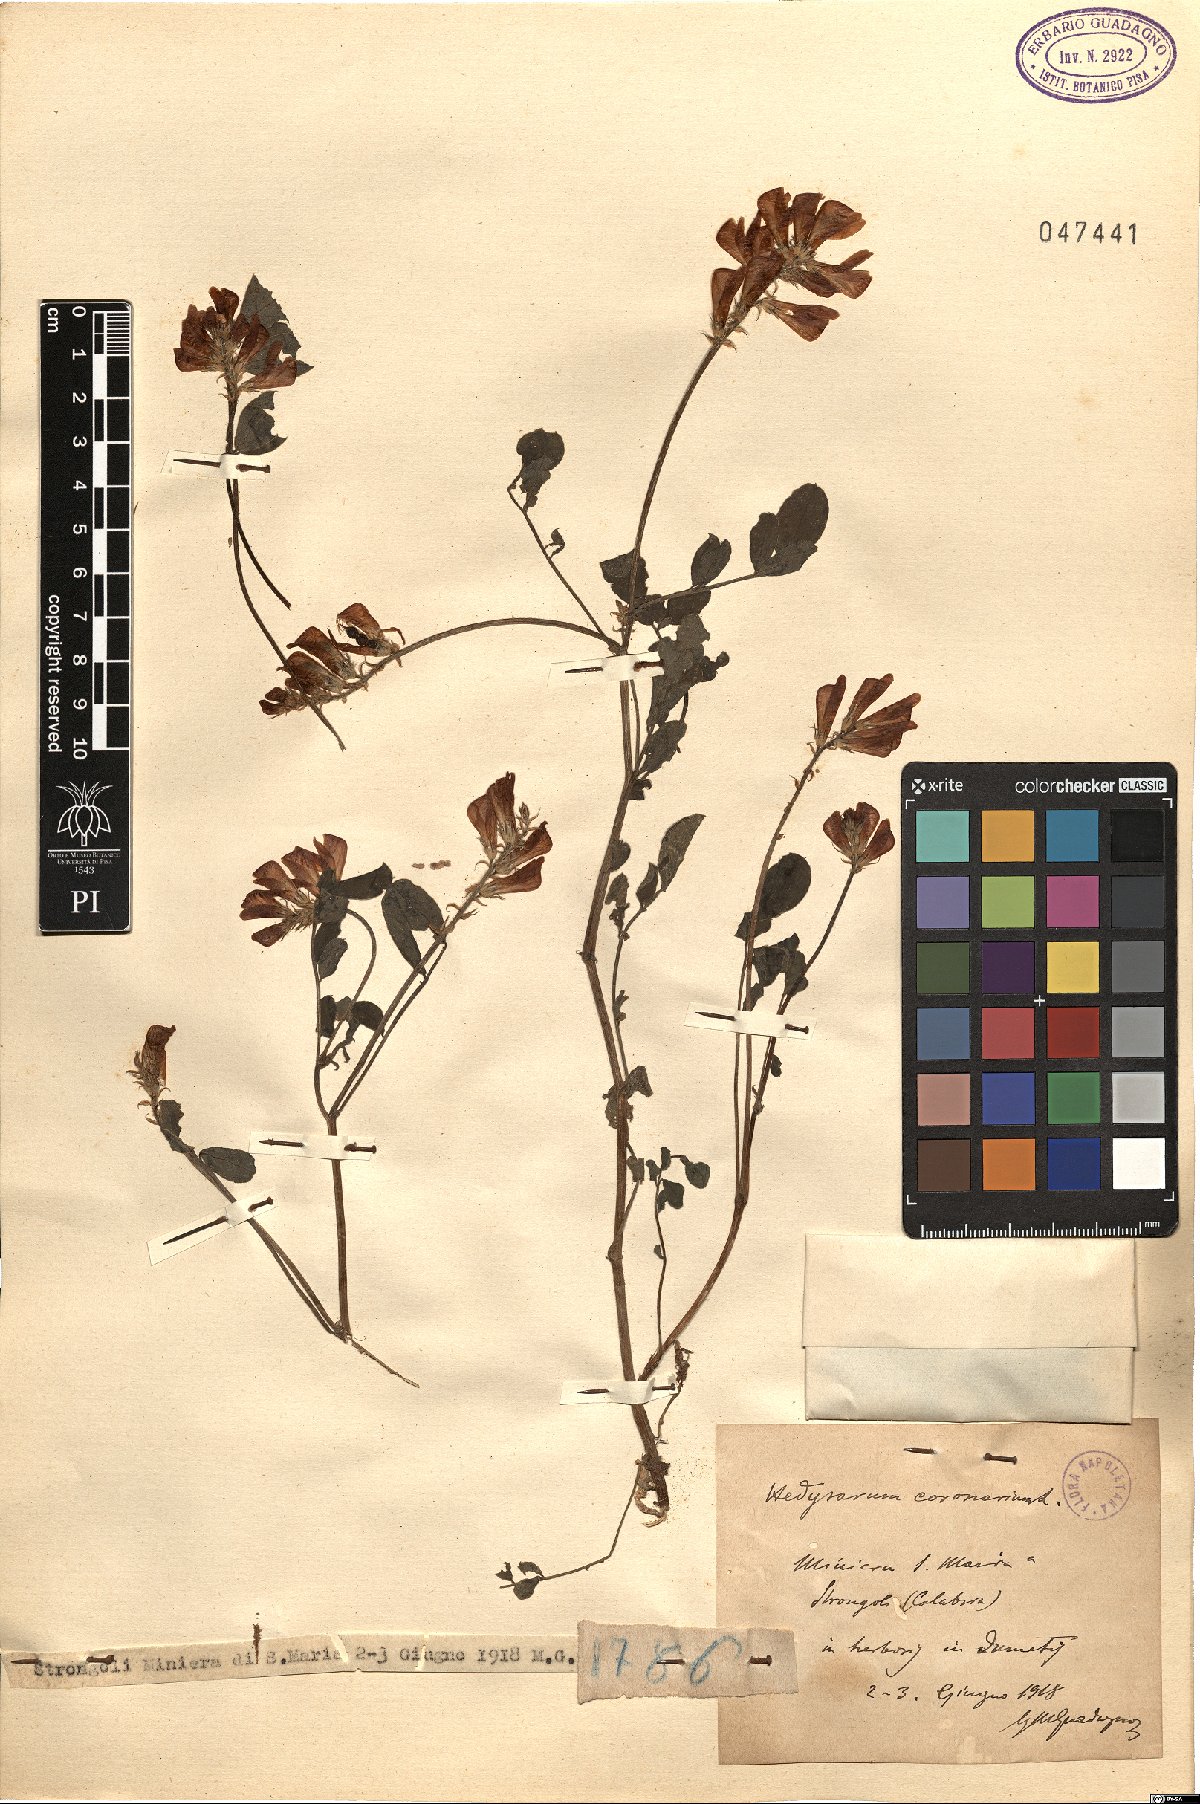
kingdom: Plantae
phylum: Tracheophyta
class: Magnoliopsida
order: Fabales
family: Fabaceae
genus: Sulla
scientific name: Sulla coronaria
